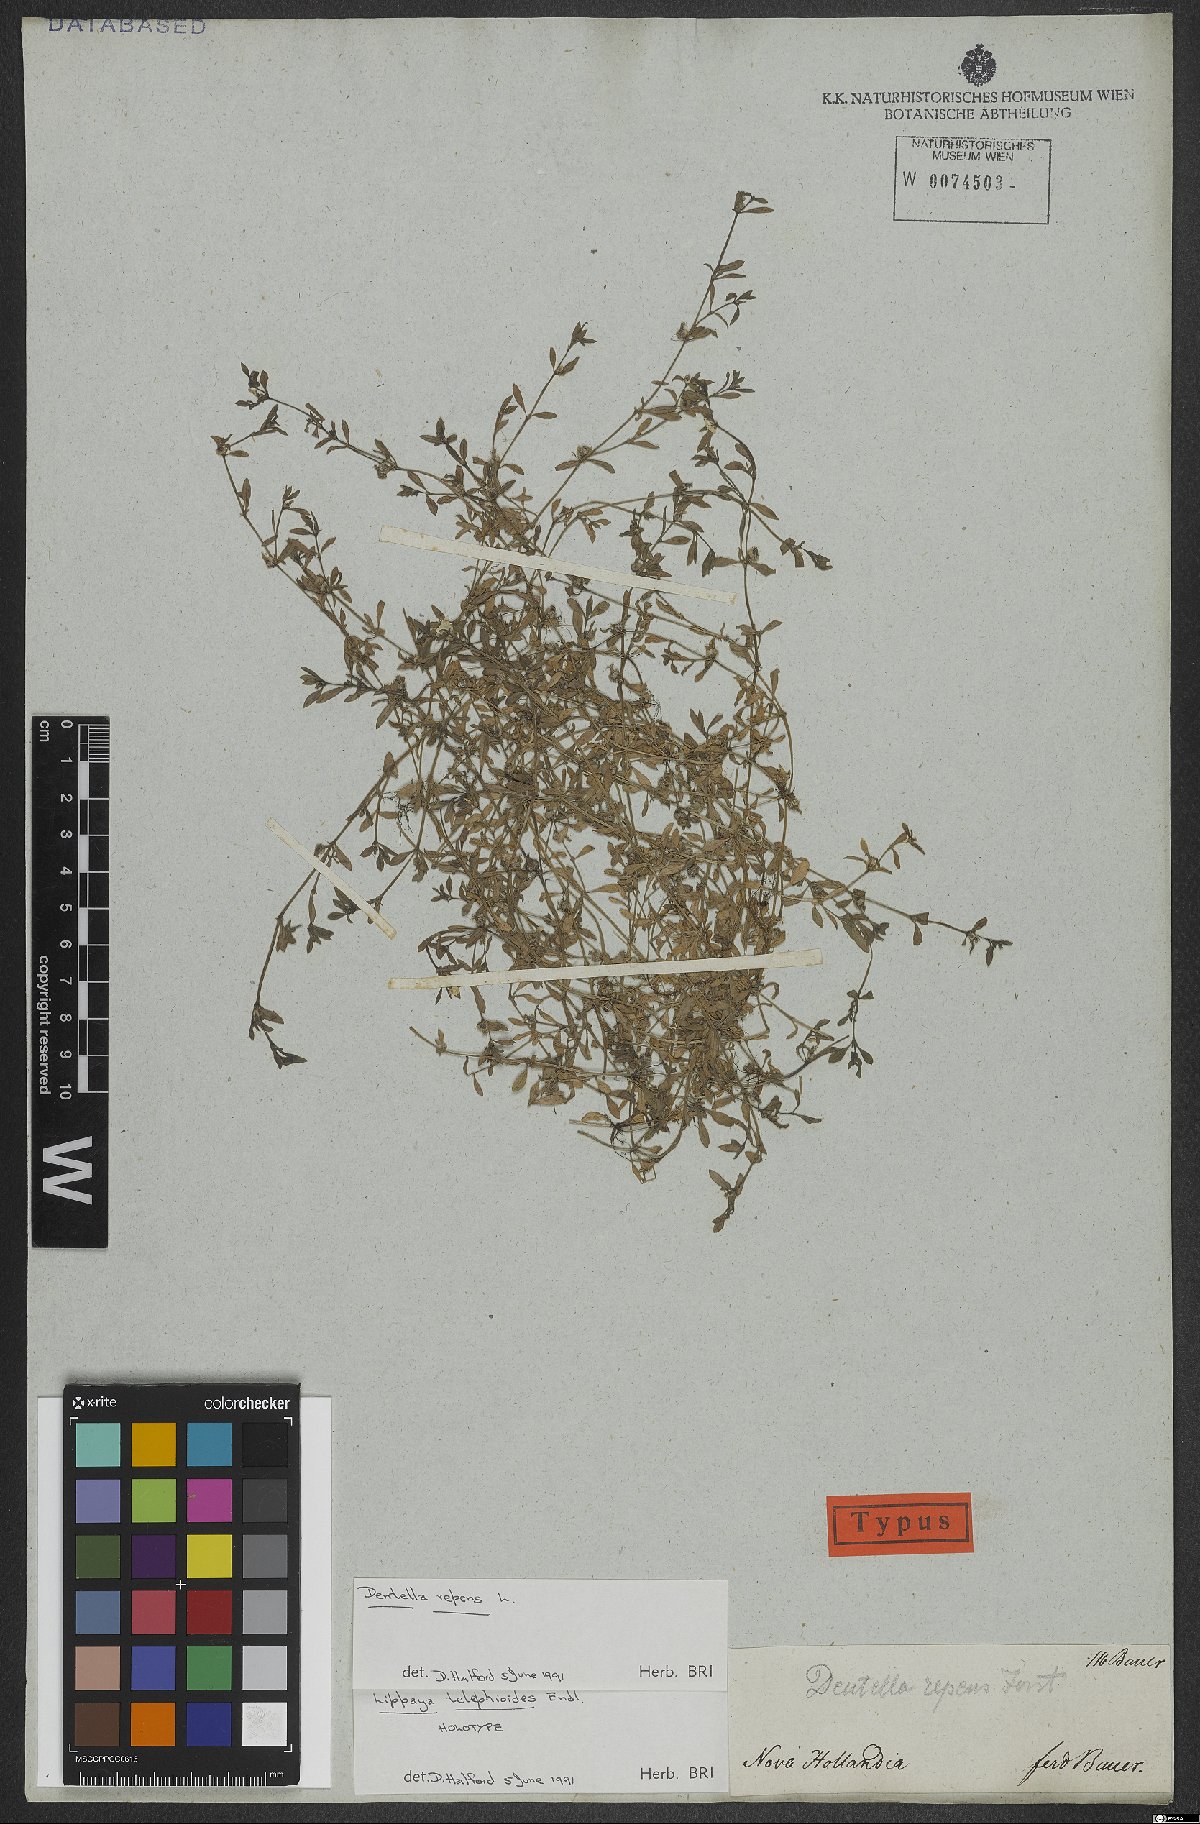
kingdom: Plantae
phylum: Tracheophyta
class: Magnoliopsida
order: Gentianales
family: Rubiaceae
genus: Dentella
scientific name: Dentella repens
